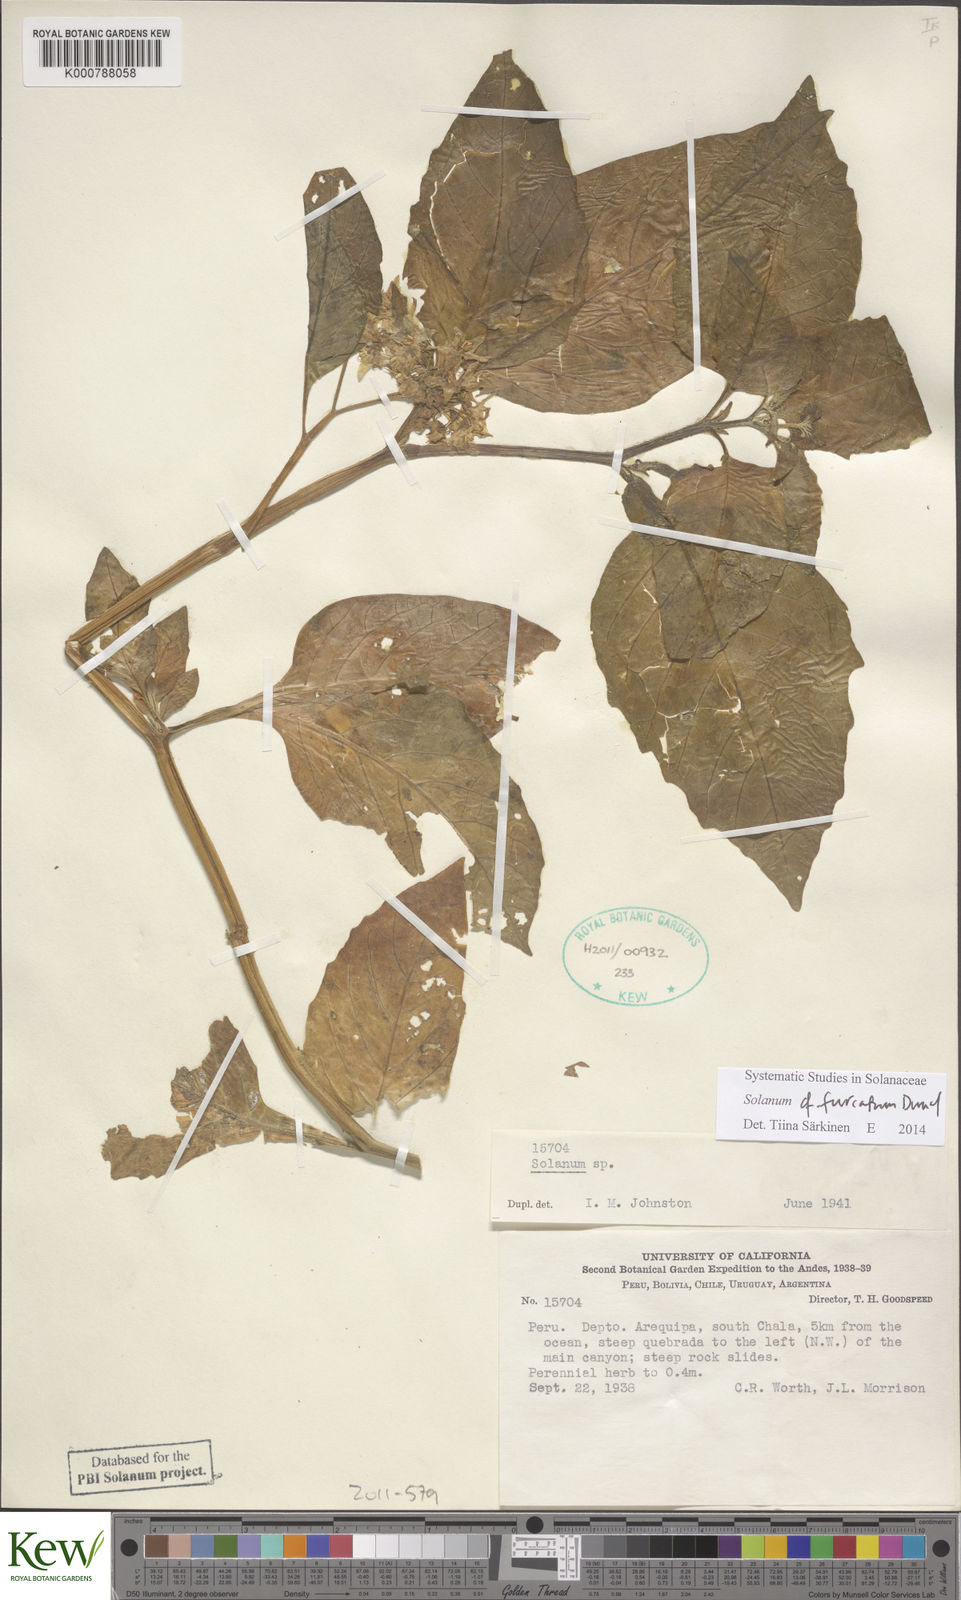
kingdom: Plantae
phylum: Tracheophyta
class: Magnoliopsida
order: Solanales
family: Solanaceae
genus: Solanum
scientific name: Solanum
